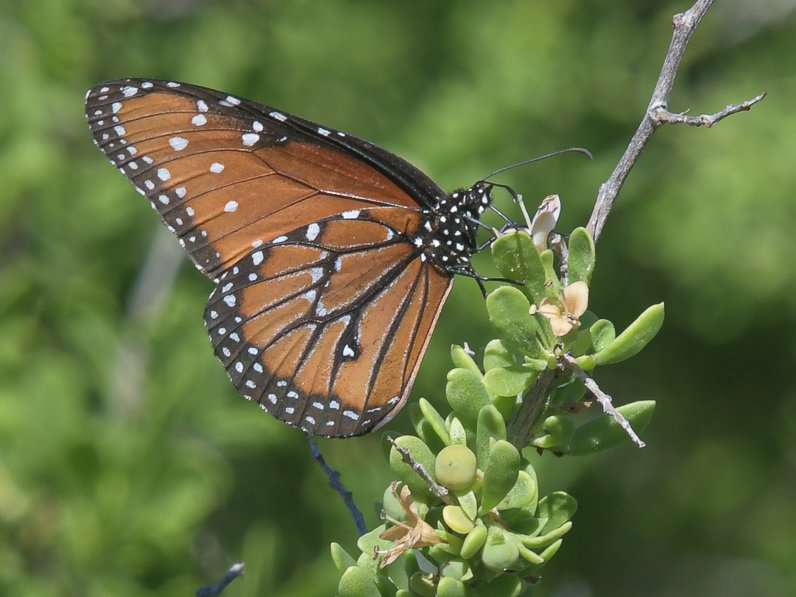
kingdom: Animalia
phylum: Arthropoda
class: Insecta
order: Lepidoptera
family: Nymphalidae
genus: Danaus
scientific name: Danaus gilippus
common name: Queen
